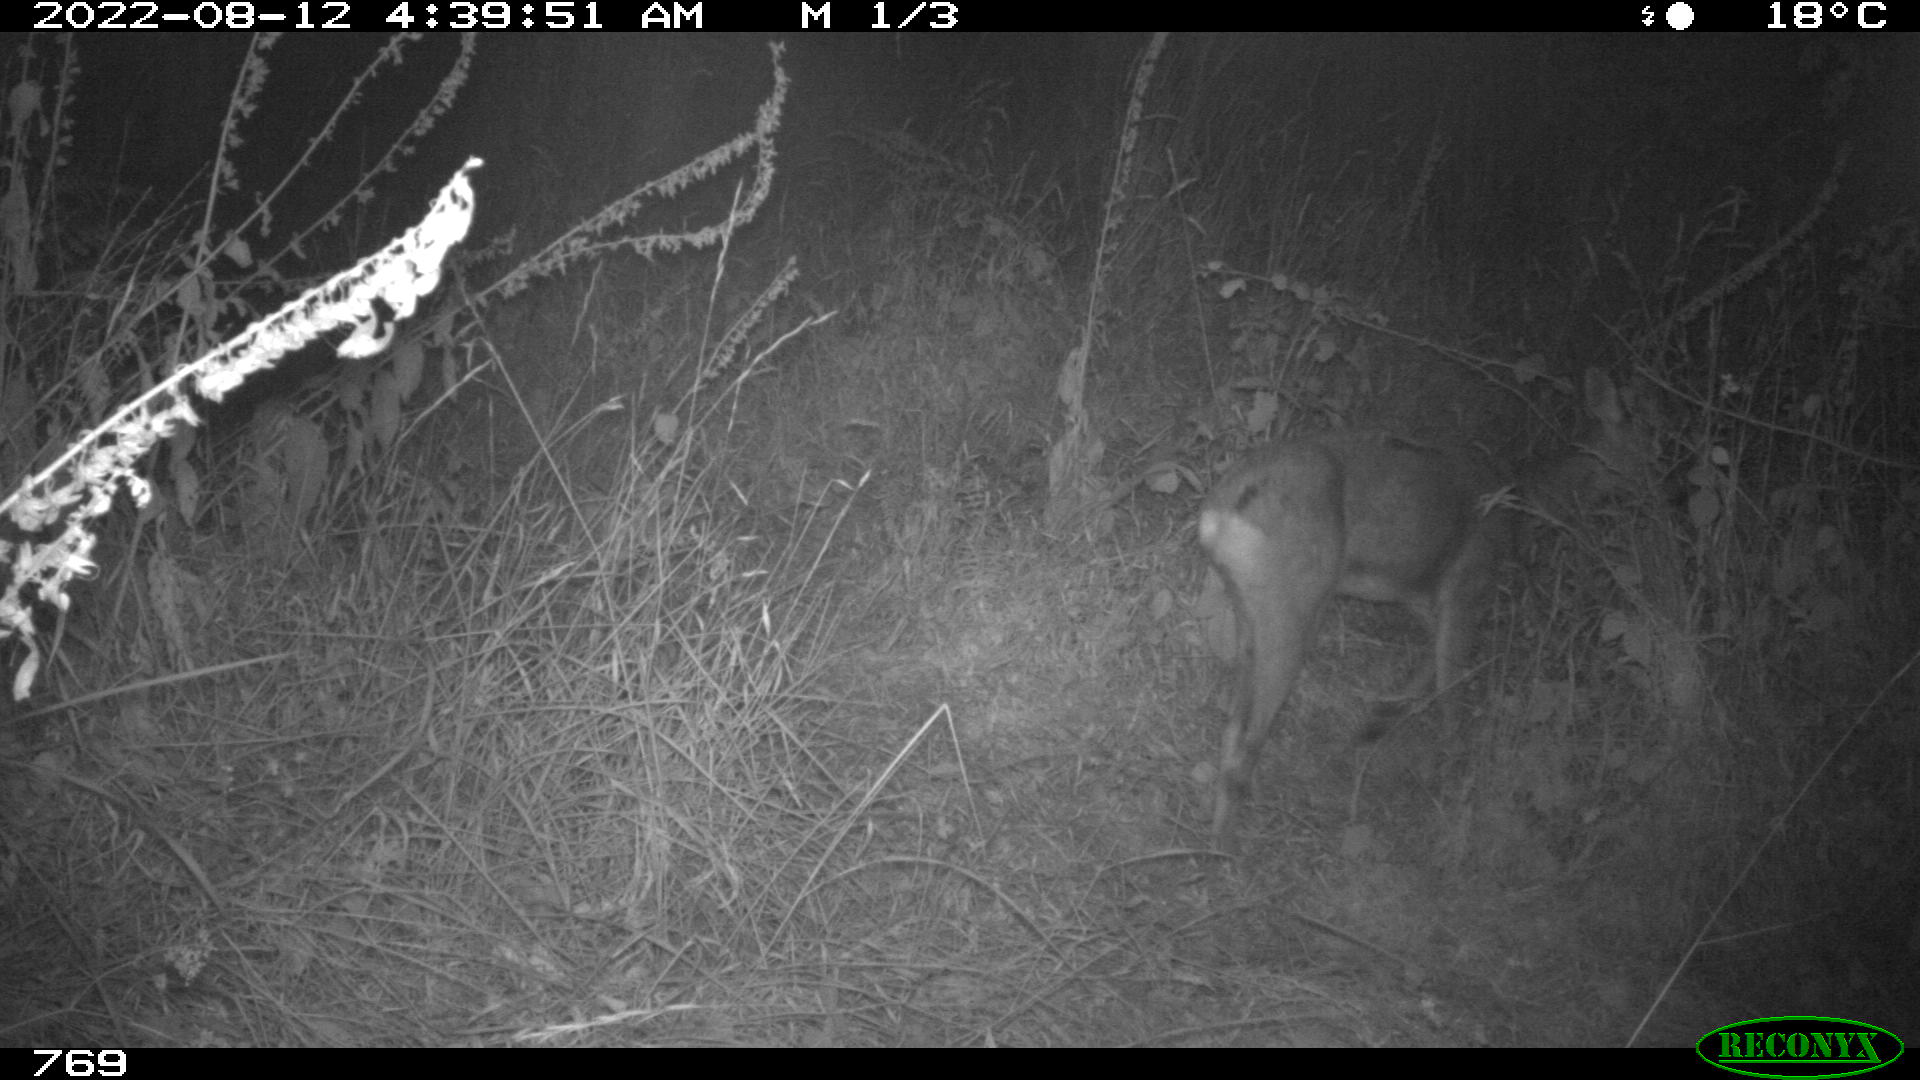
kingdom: Animalia
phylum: Chordata
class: Mammalia
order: Artiodactyla
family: Cervidae
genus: Capreolus
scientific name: Capreolus capreolus
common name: Western roe deer
